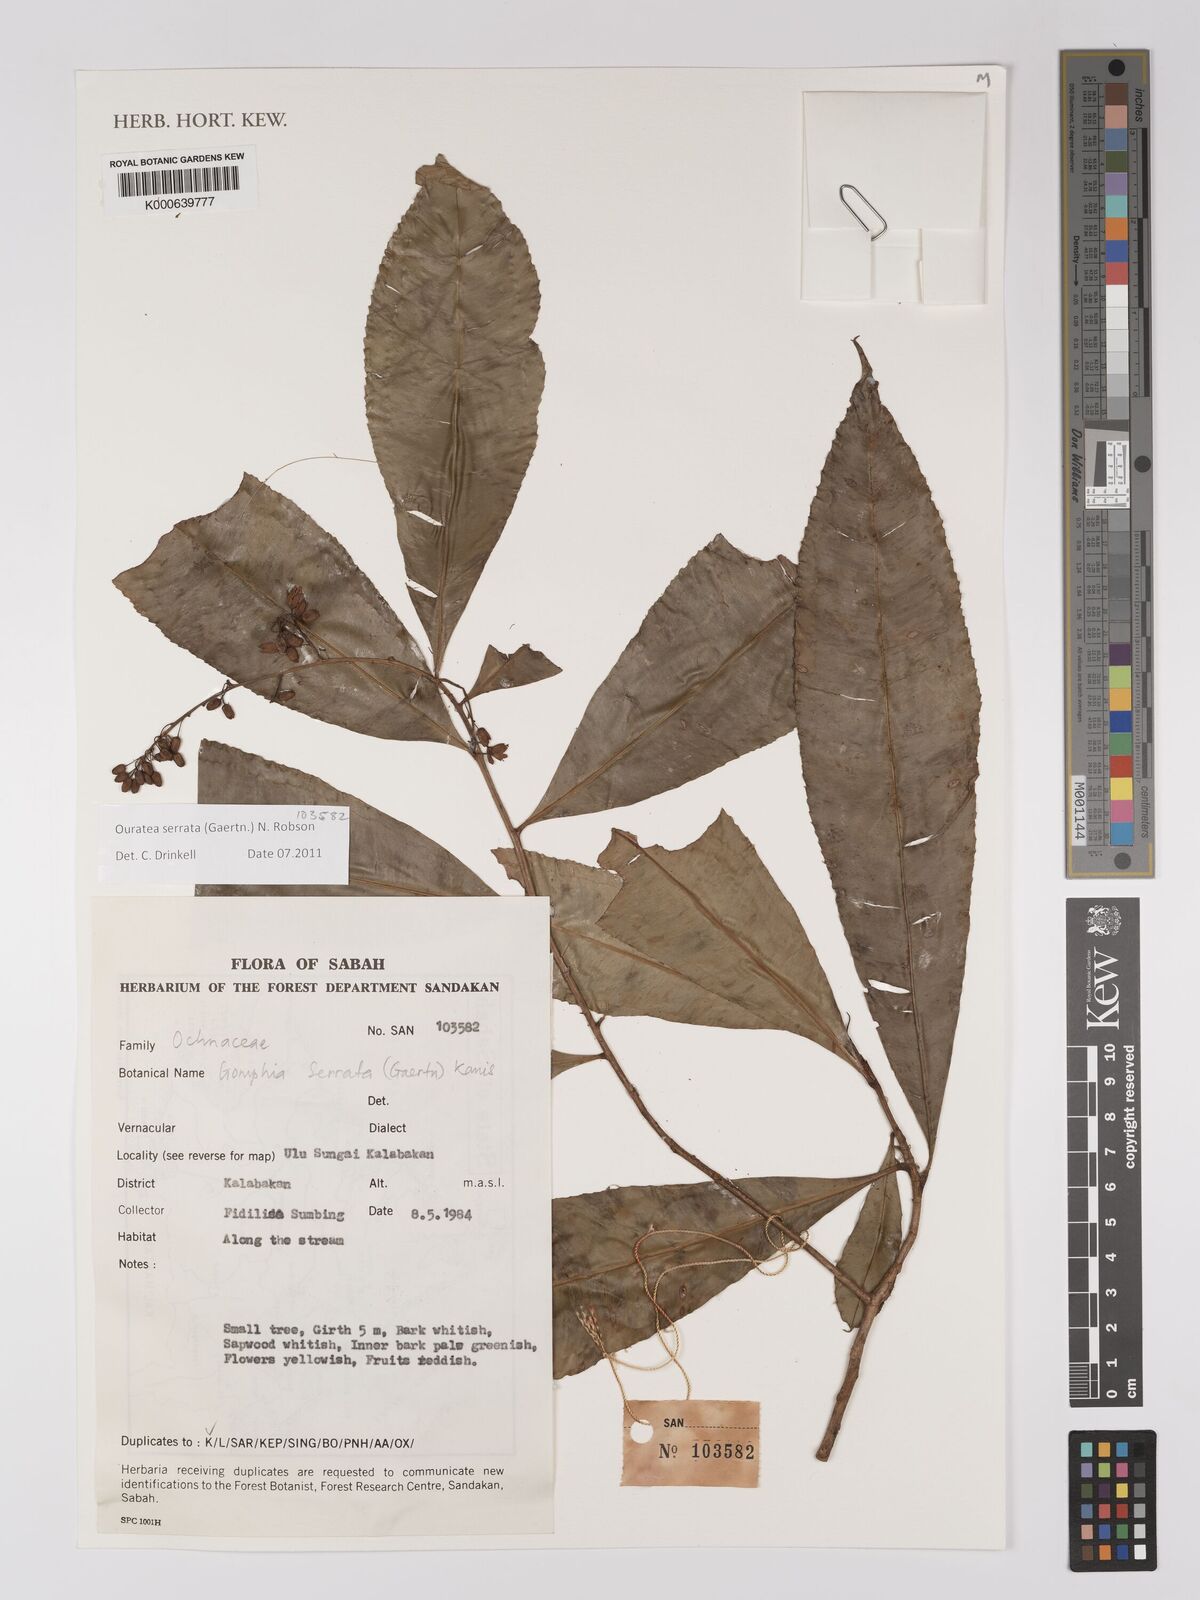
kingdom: Plantae
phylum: Tracheophyta
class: Magnoliopsida
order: Malpighiales
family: Ochnaceae
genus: Gomphia
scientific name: Gomphia serrata
